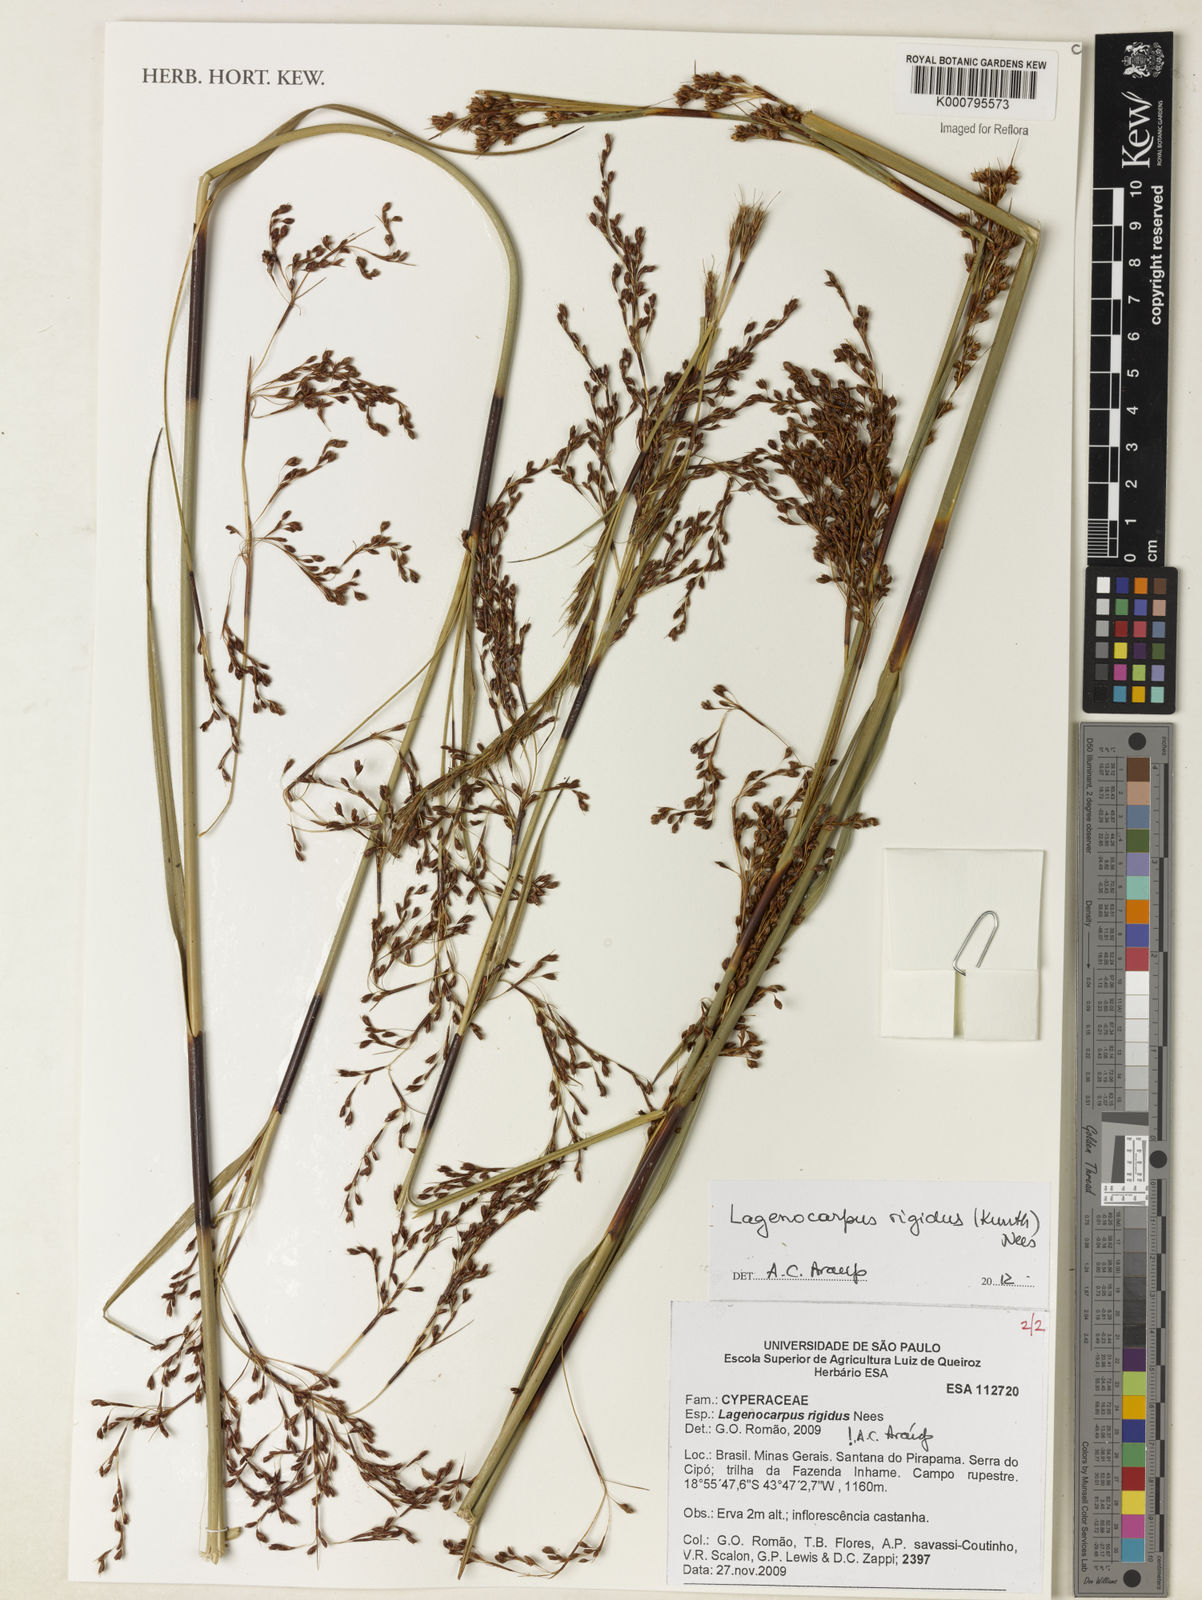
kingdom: Plantae
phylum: Tracheophyta
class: Liliopsida
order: Poales
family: Cyperaceae
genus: Lagenocarpus
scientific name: Lagenocarpus rigidus
